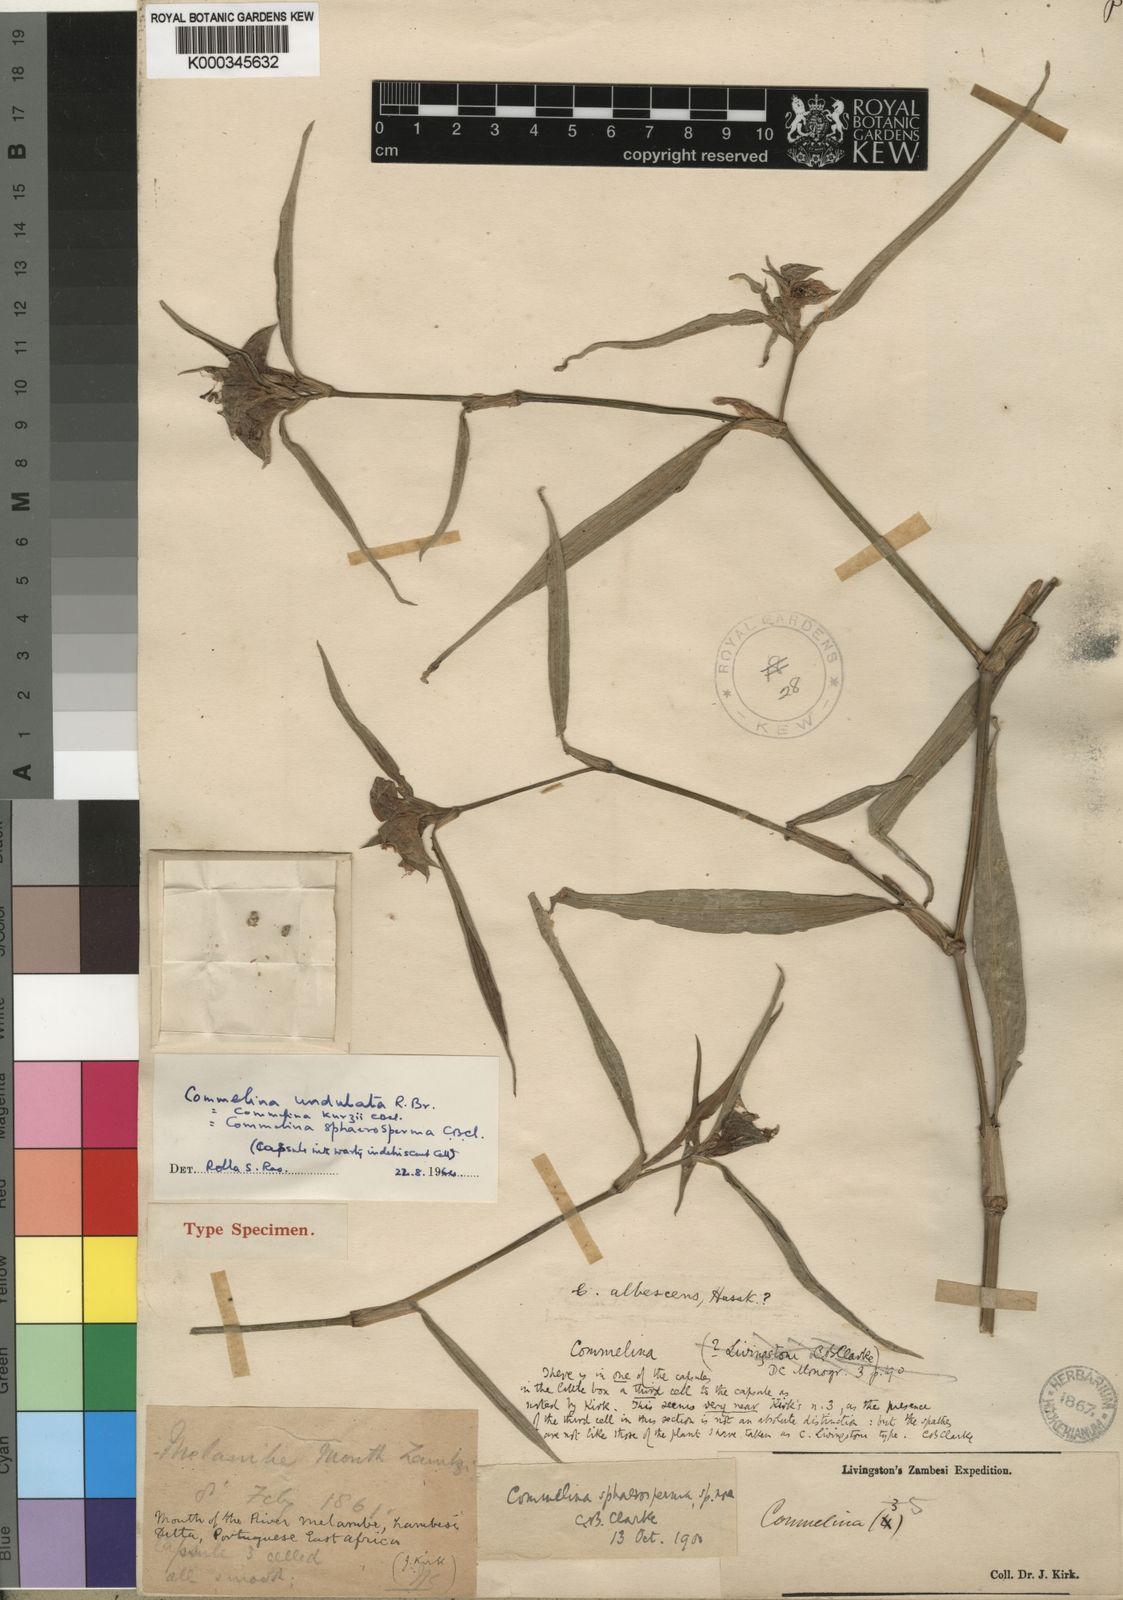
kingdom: Plantae
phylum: Tracheophyta
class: Liliopsida
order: Commelinales
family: Commelinaceae
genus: Commelina
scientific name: Commelina erecta
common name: Blousel blommetjie
